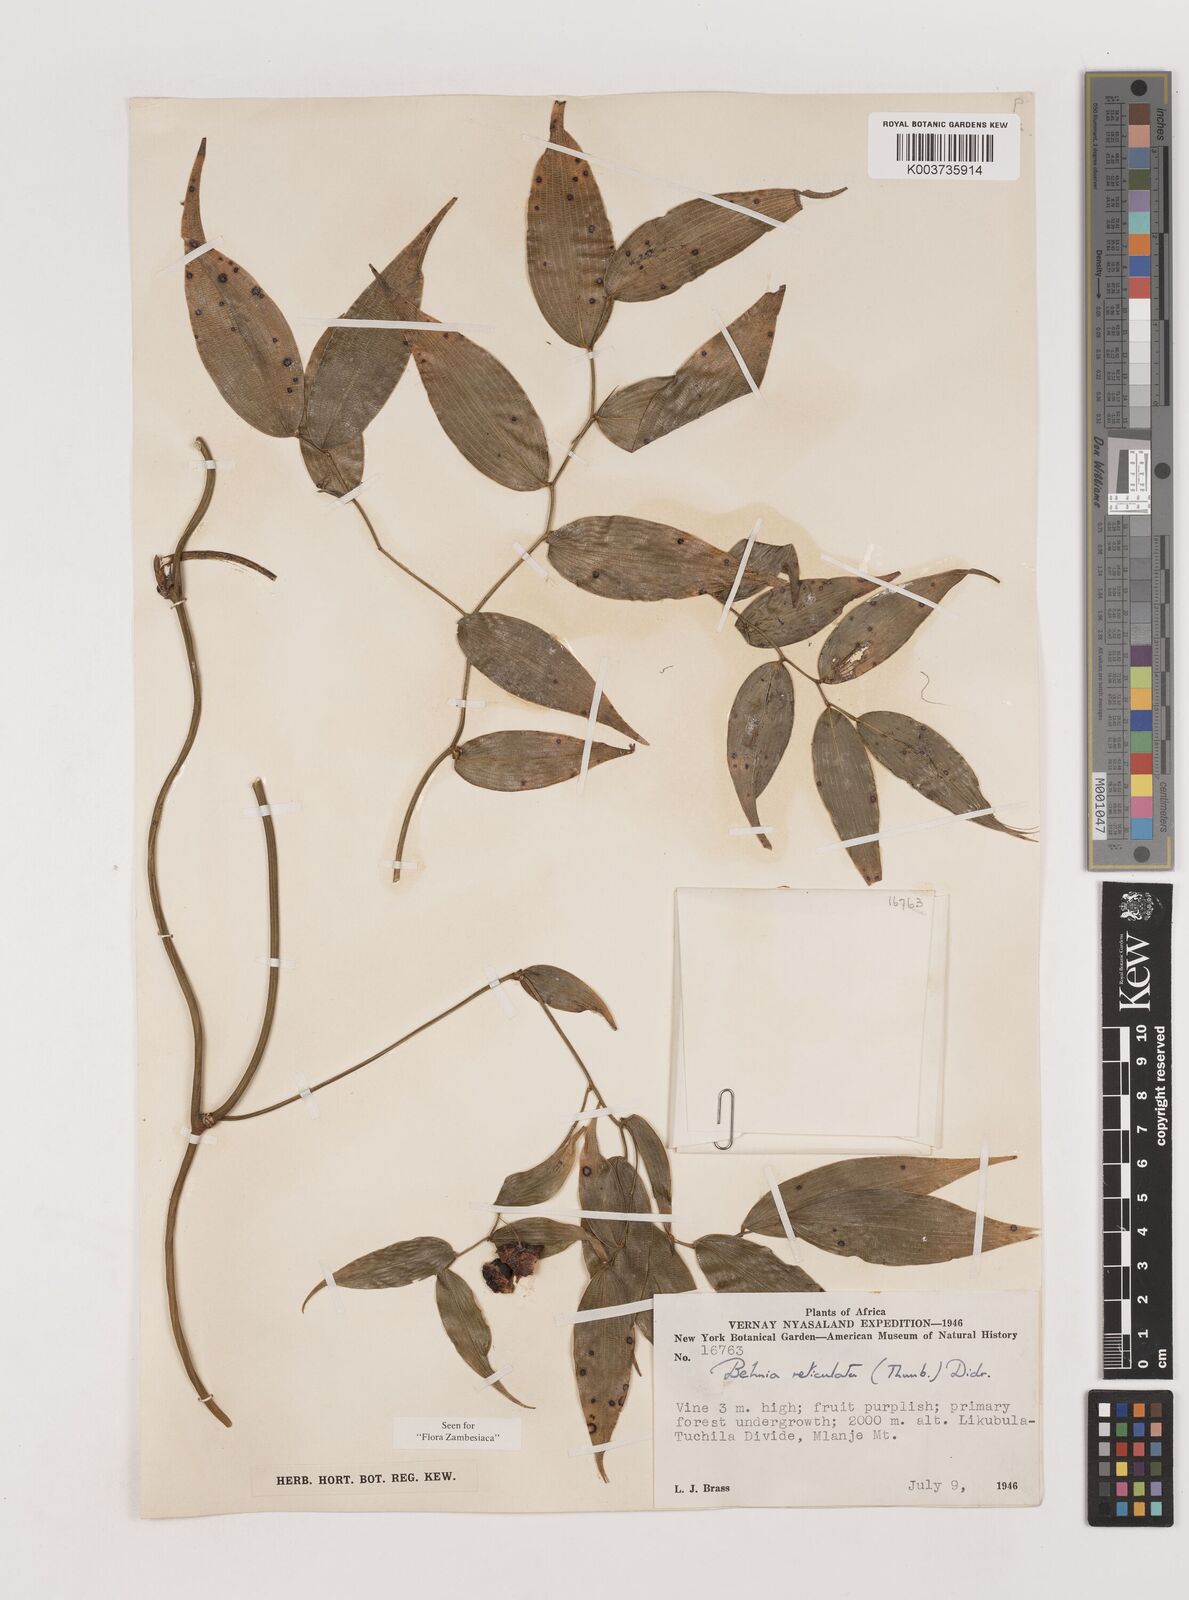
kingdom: Plantae
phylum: Tracheophyta
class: Liliopsida
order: Asparagales
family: Asparagaceae
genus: Behnia
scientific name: Behnia reticulata
